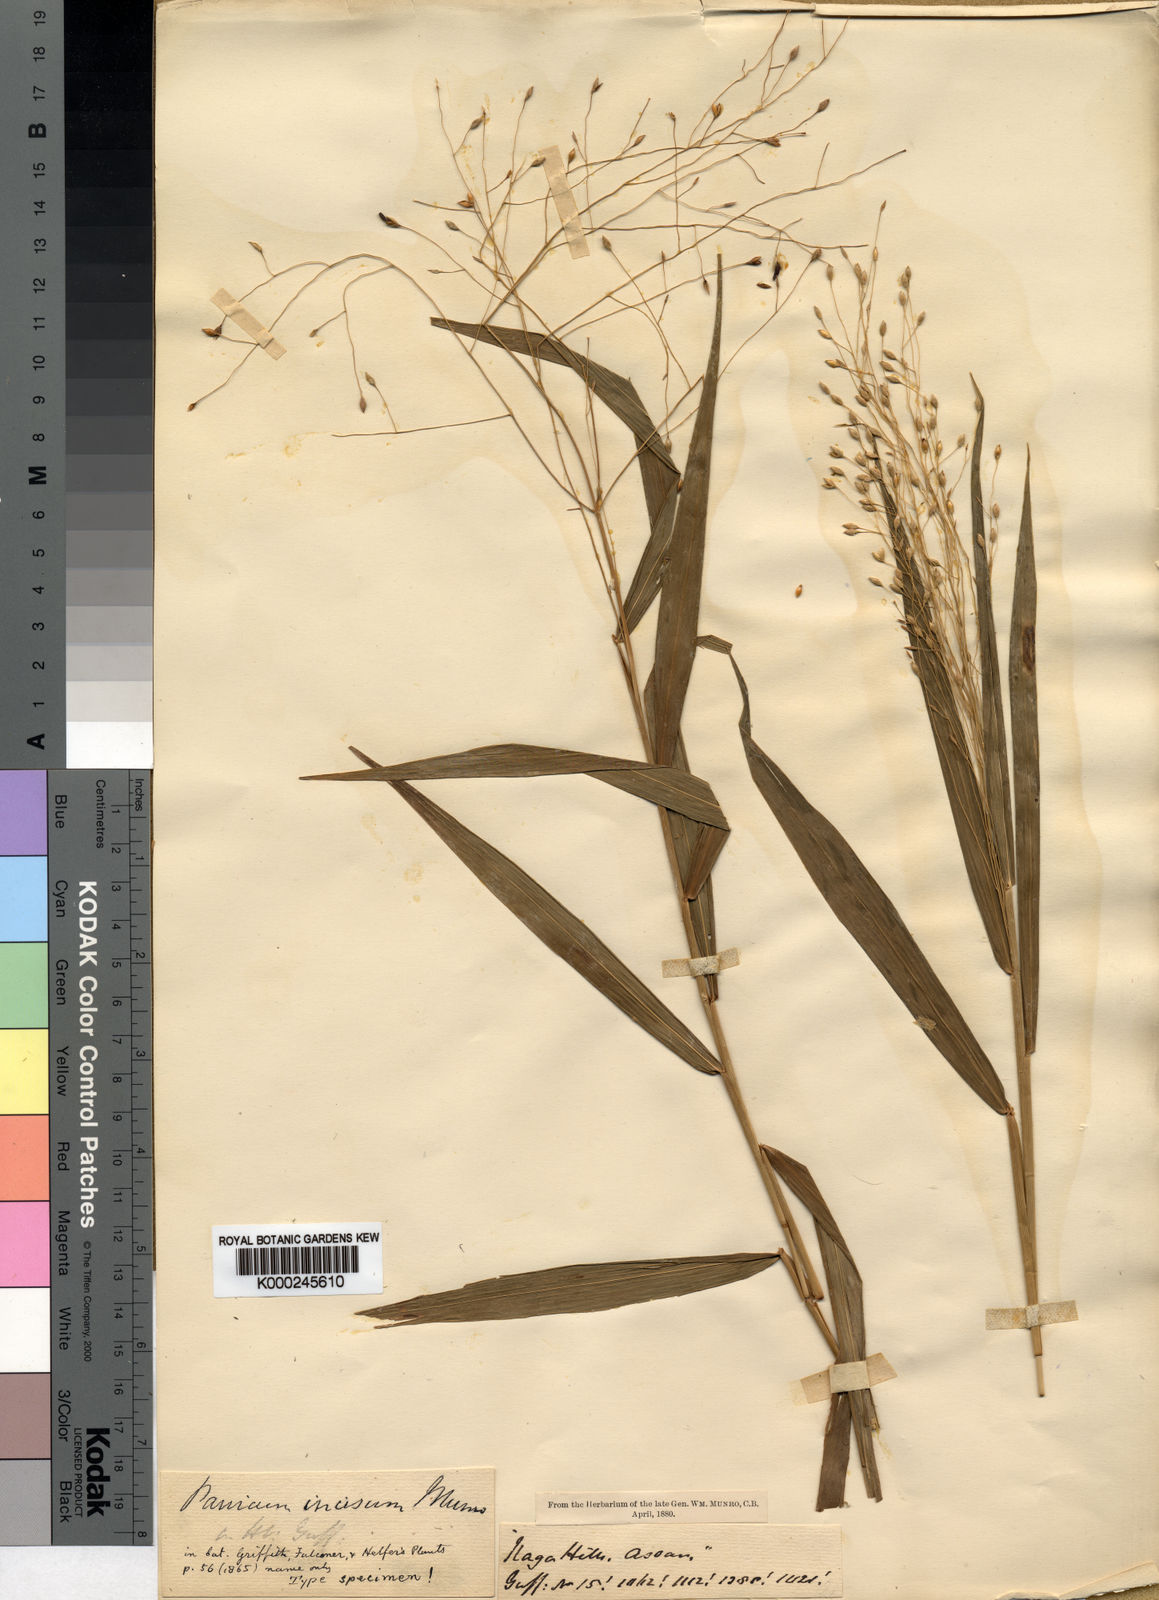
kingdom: Plantae
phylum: Tracheophyta
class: Liliopsida
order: Poales
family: Poaceae
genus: Panicum
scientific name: Panicum incisum
